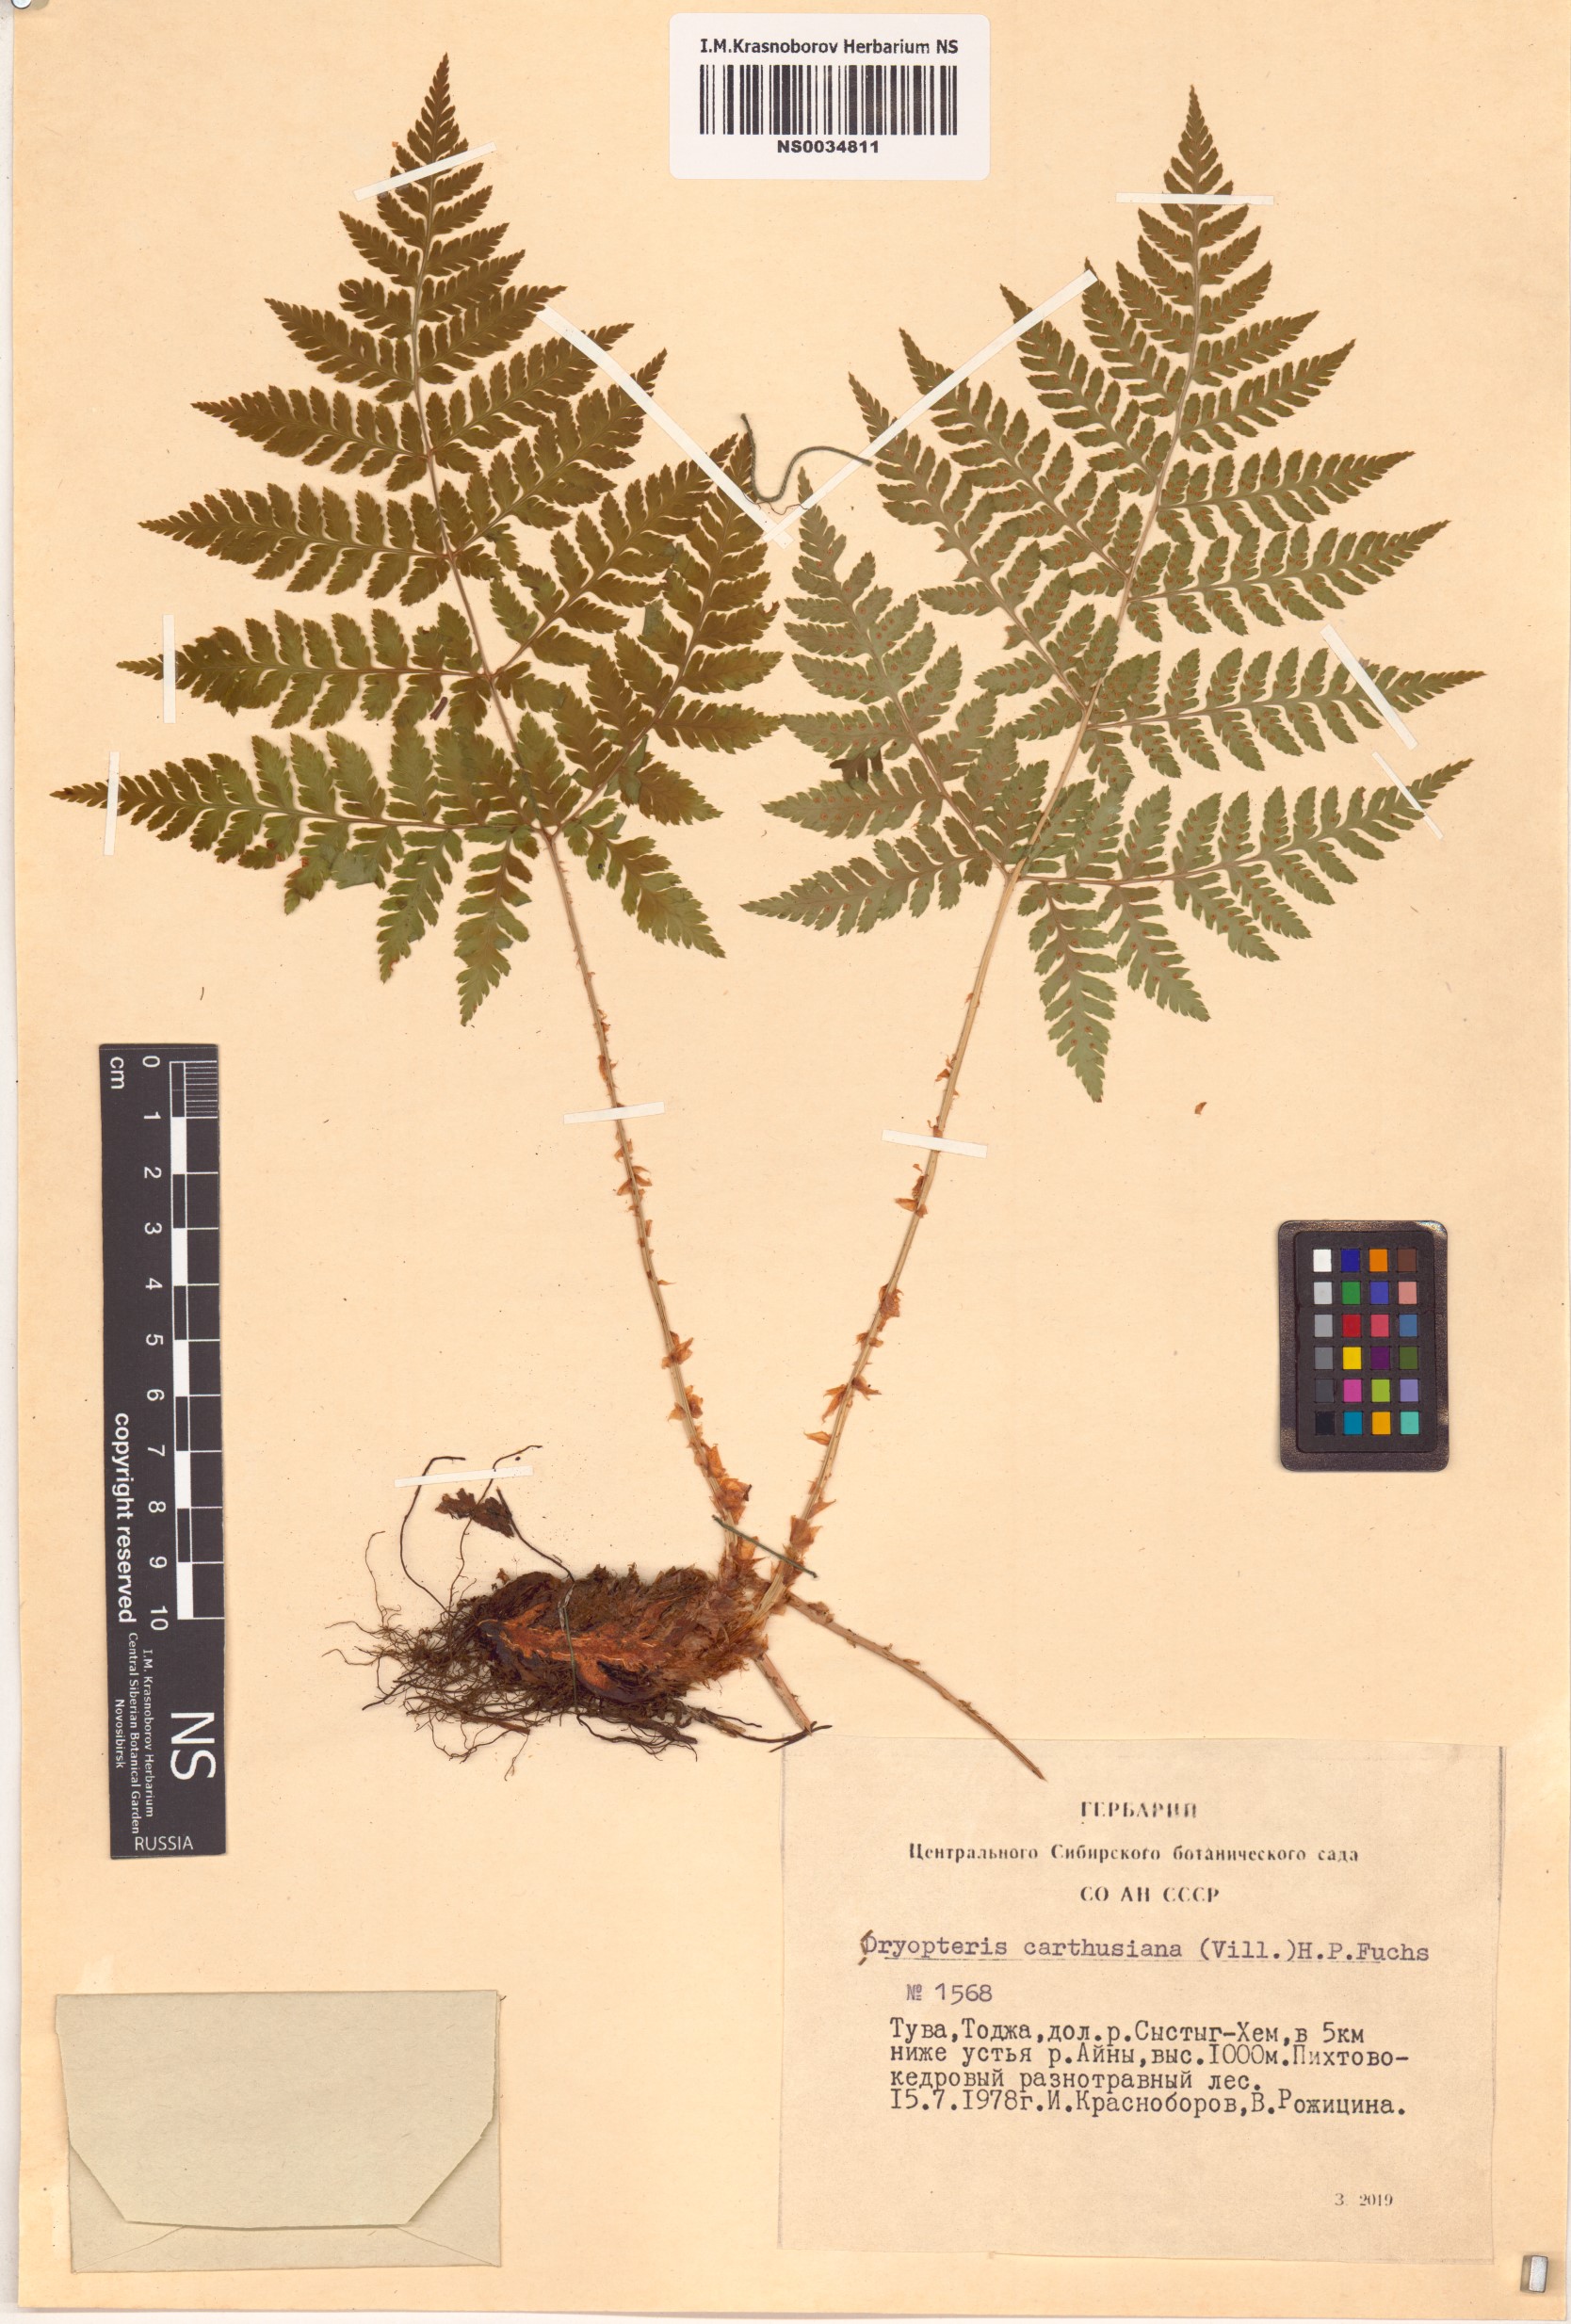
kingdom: Plantae
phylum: Tracheophyta
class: Polypodiopsida
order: Polypodiales
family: Dryopteridaceae
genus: Dryopteris
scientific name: Dryopteris carthusiana
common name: Narrow buckler-fern
